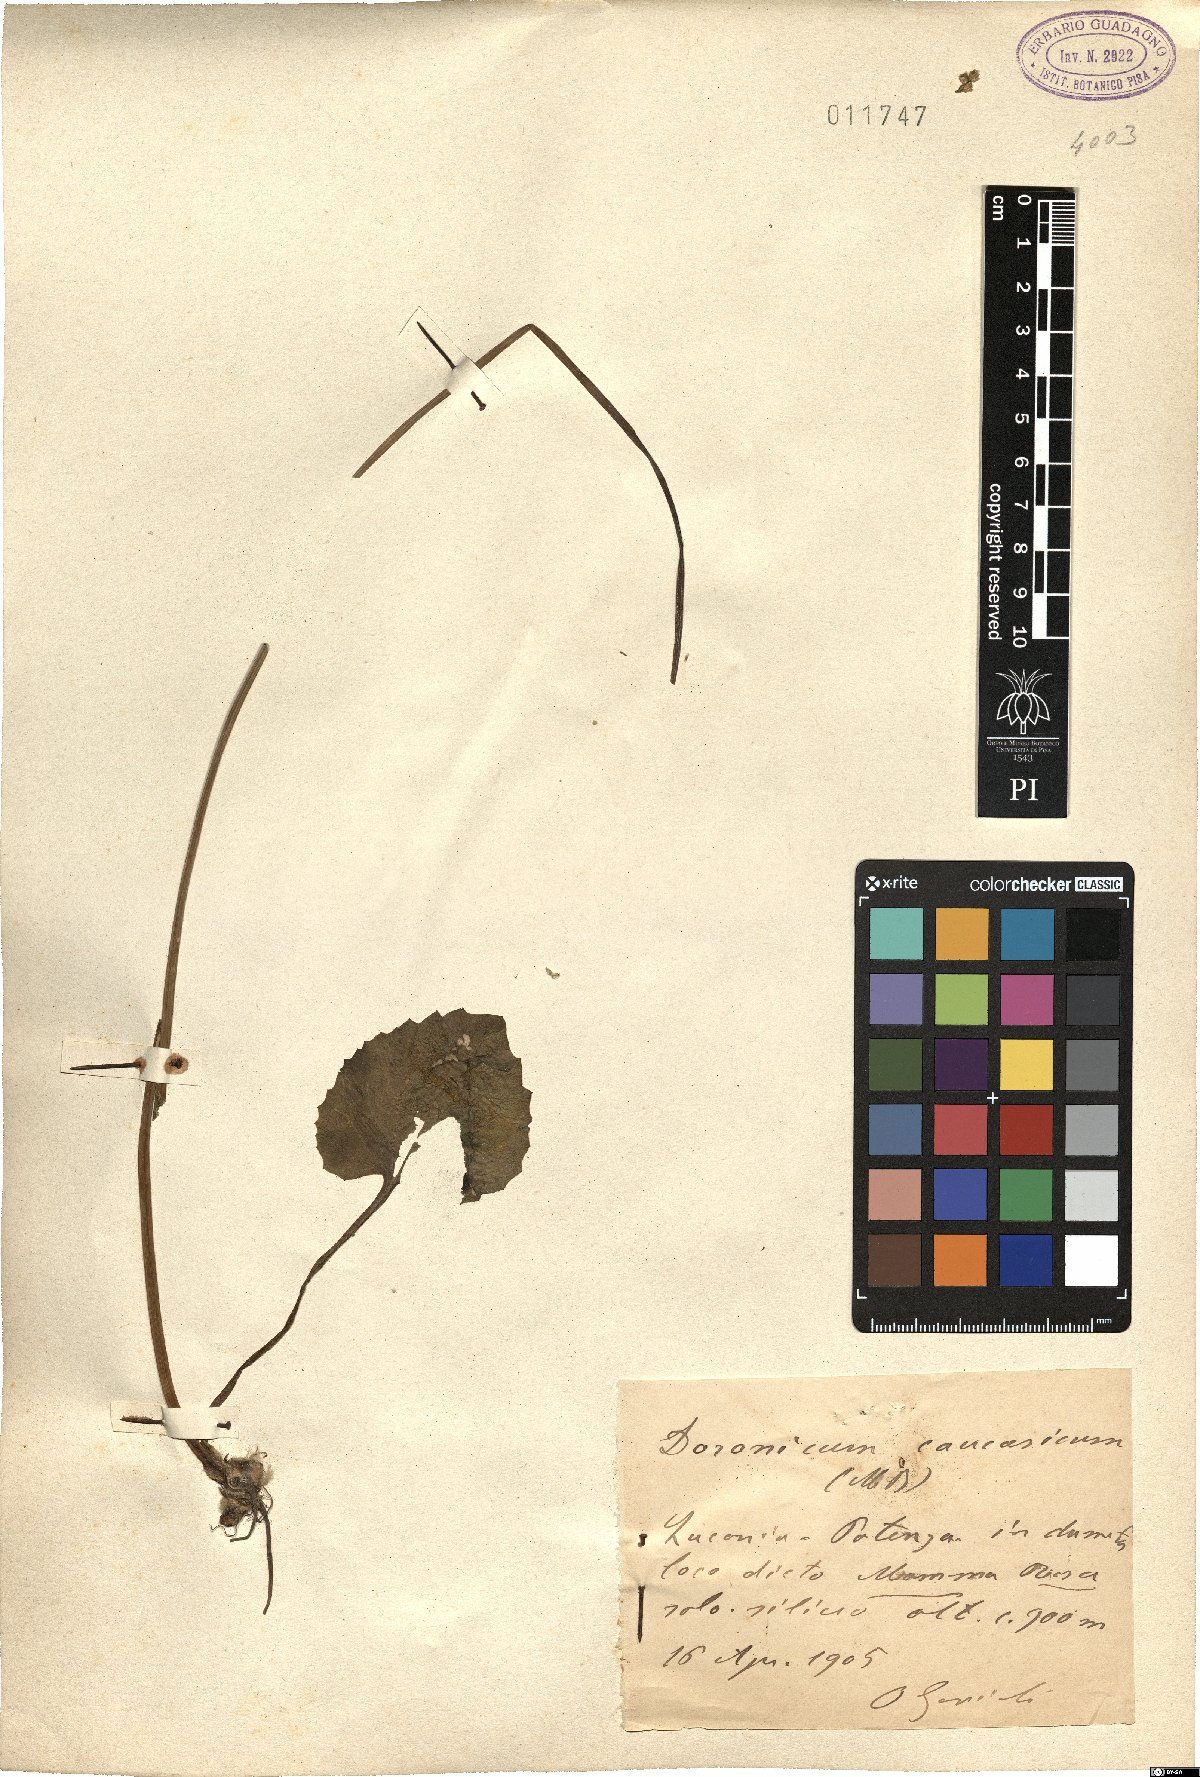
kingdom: Plantae
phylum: Tracheophyta
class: Magnoliopsida
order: Asterales
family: Asteraceae
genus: Doronicum
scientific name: Doronicum orientale
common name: Oriental leopard's-bane
